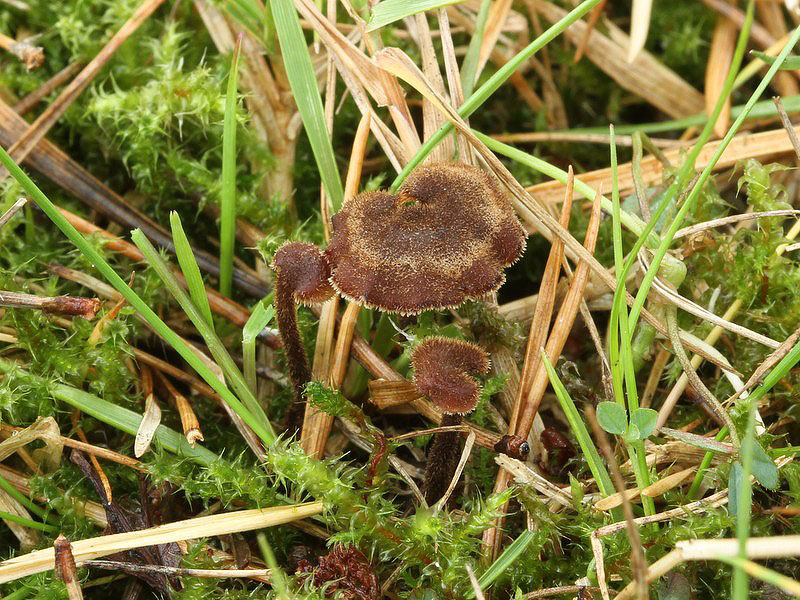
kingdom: Fungi
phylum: Basidiomycota
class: Agaricomycetes
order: Russulales
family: Auriscalpiaceae
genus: Auriscalpium
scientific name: Auriscalpium vulgare
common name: koglepigsvamp
